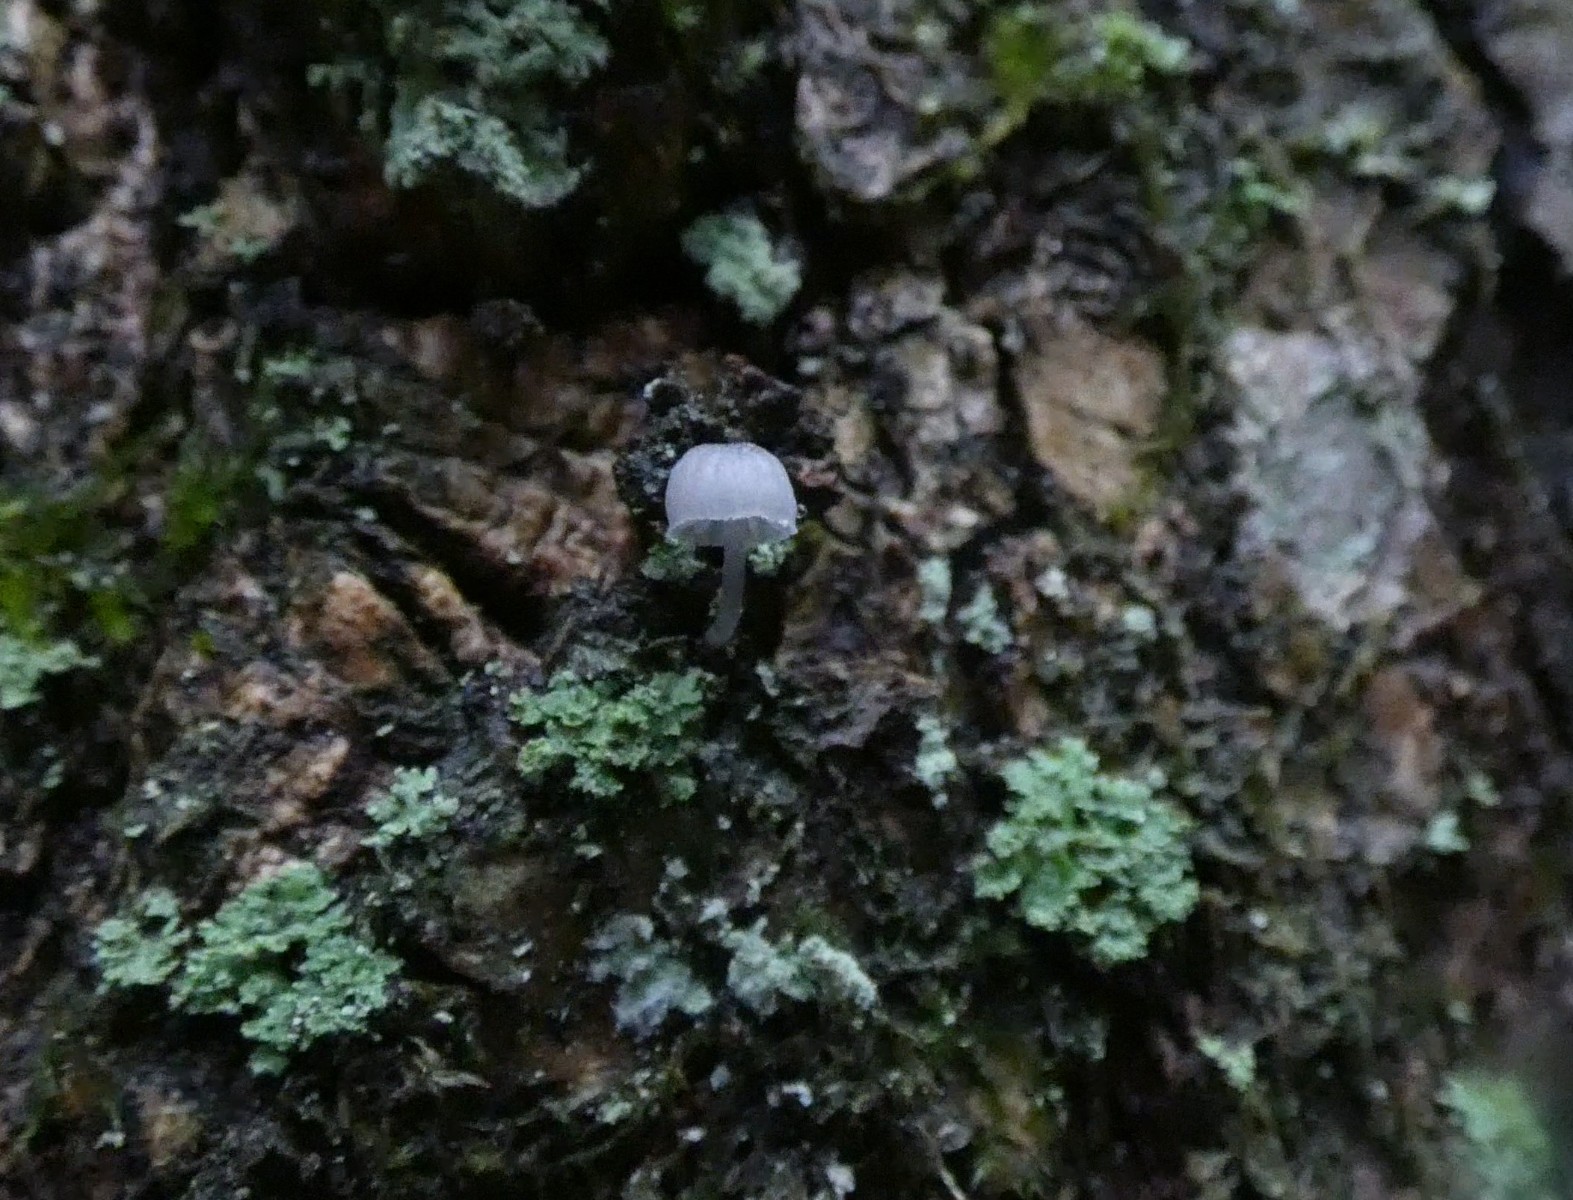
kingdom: Fungi
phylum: Basidiomycota
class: Agaricomycetes
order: Agaricales
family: Mycenaceae
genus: Mycena
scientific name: Mycena pseudocorticola
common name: gråblå bark-huesvamp
